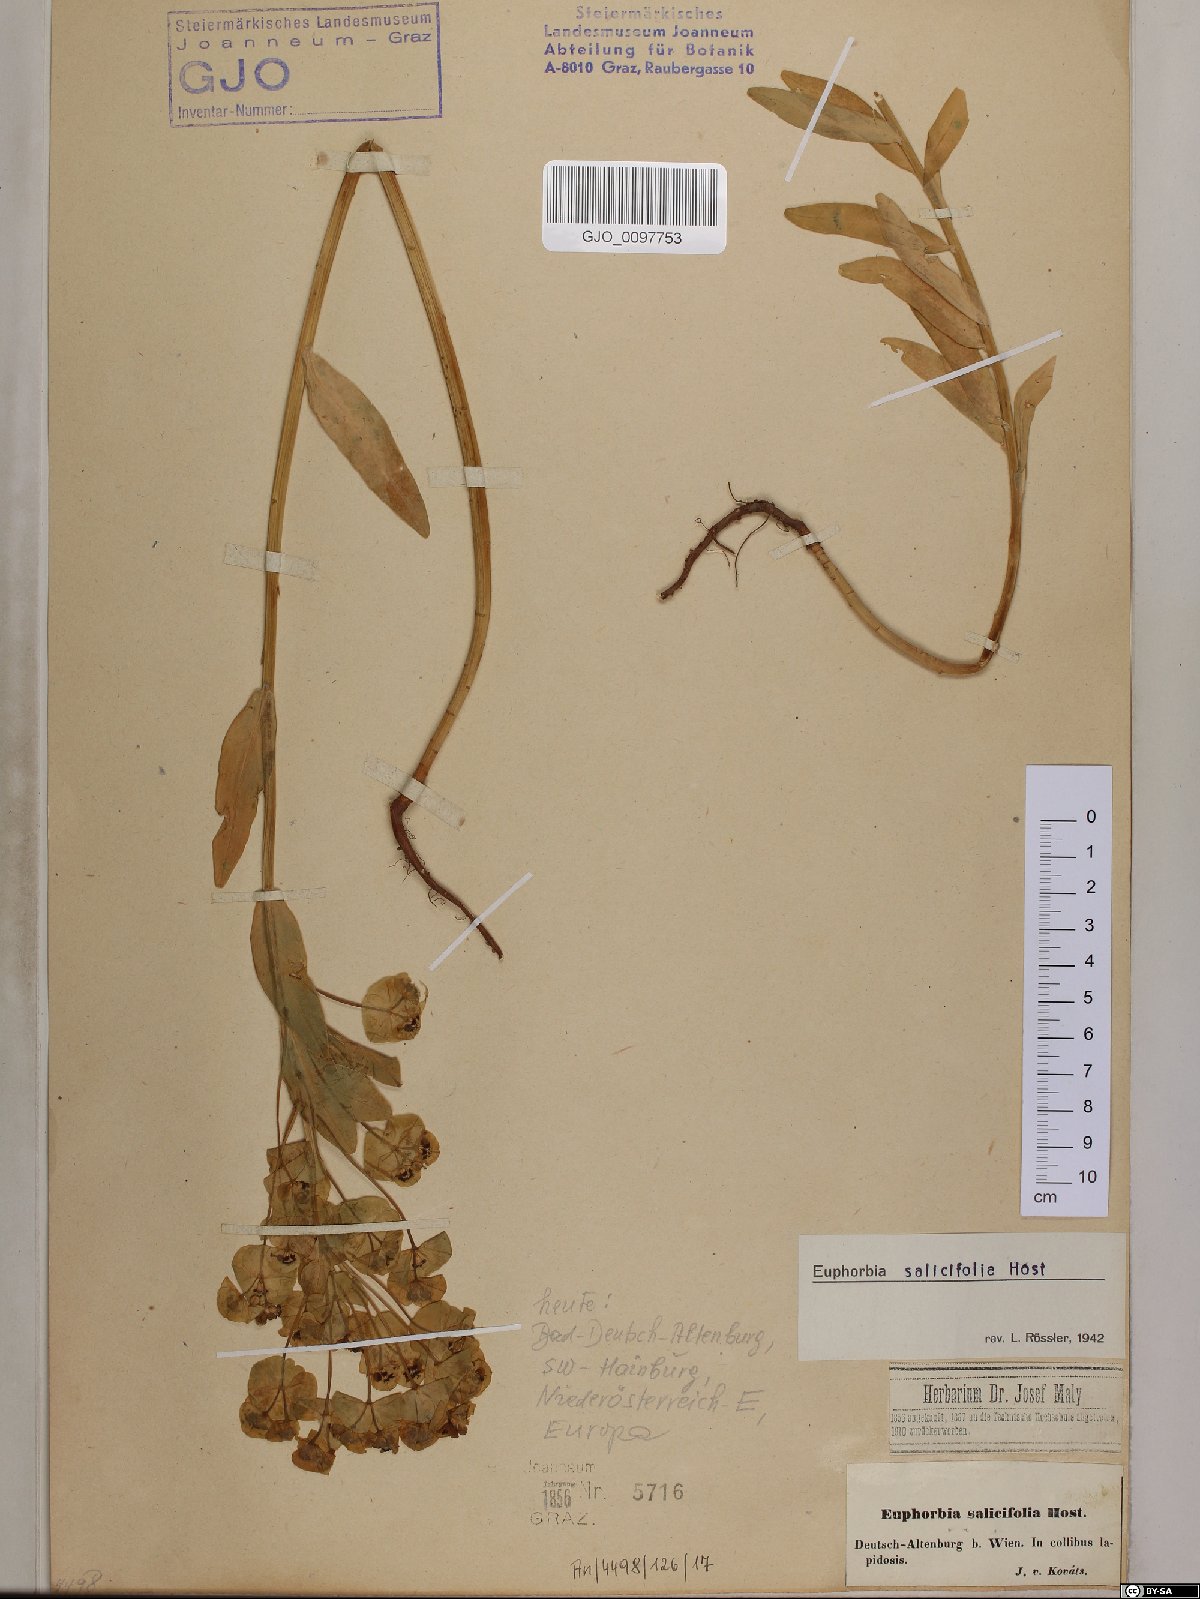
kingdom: Plantae
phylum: Tracheophyta
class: Magnoliopsida
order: Malpighiales
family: Euphorbiaceae
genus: Euphorbia
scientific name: Euphorbia salicifolia
